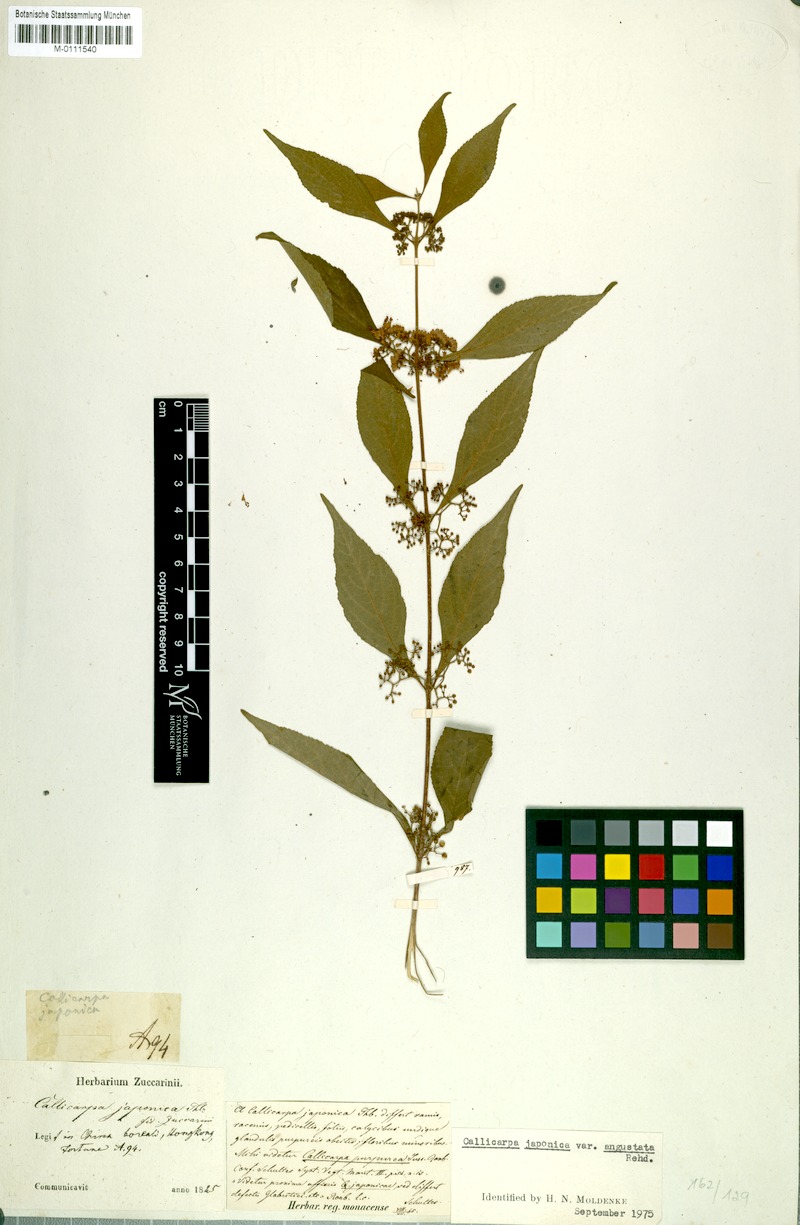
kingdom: Plantae
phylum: Tracheophyta
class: Magnoliopsida
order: Lamiales
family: Lamiaceae
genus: Callicarpa
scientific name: Callicarpa japonica
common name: Japanese beauty-berry
